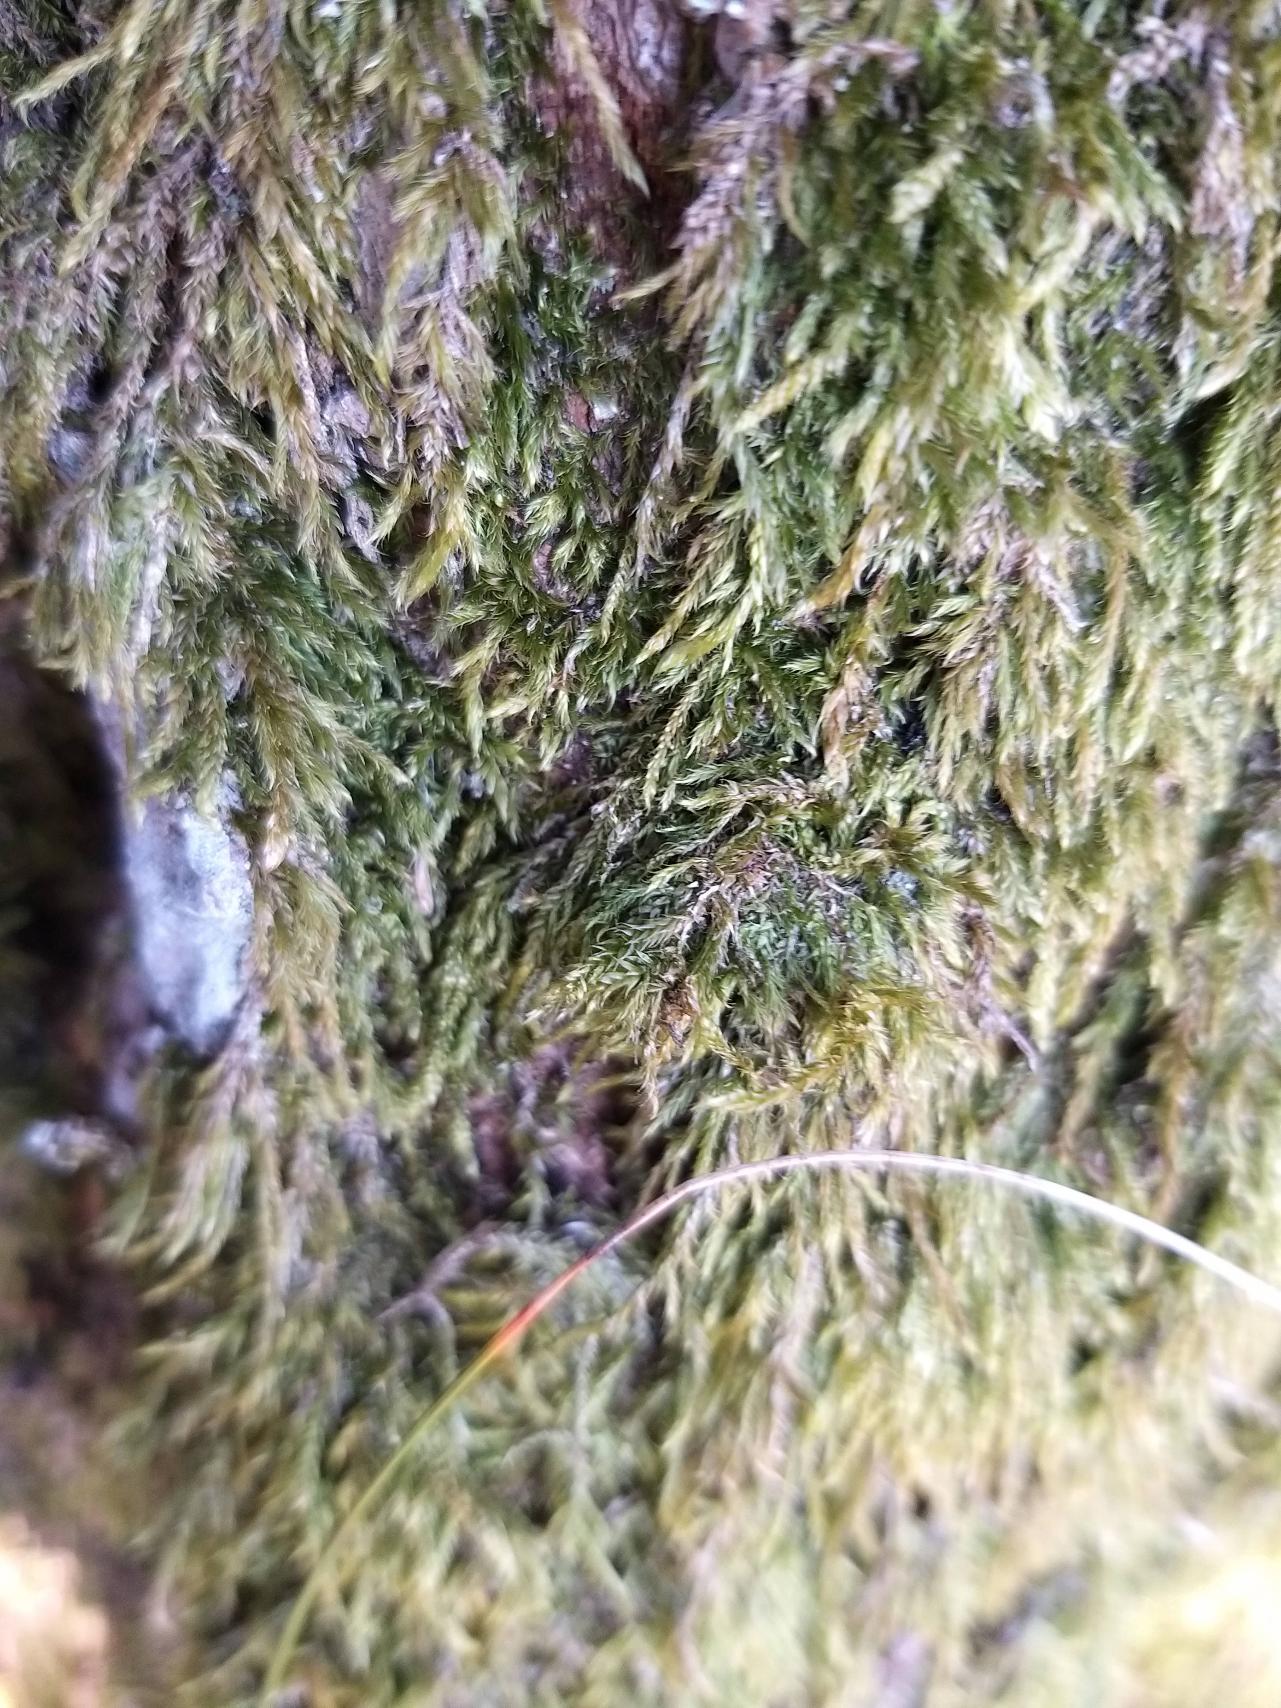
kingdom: Plantae
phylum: Bryophyta
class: Bryopsida
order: Hypnales
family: Hypnaceae
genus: Hypnum
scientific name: Hypnum
